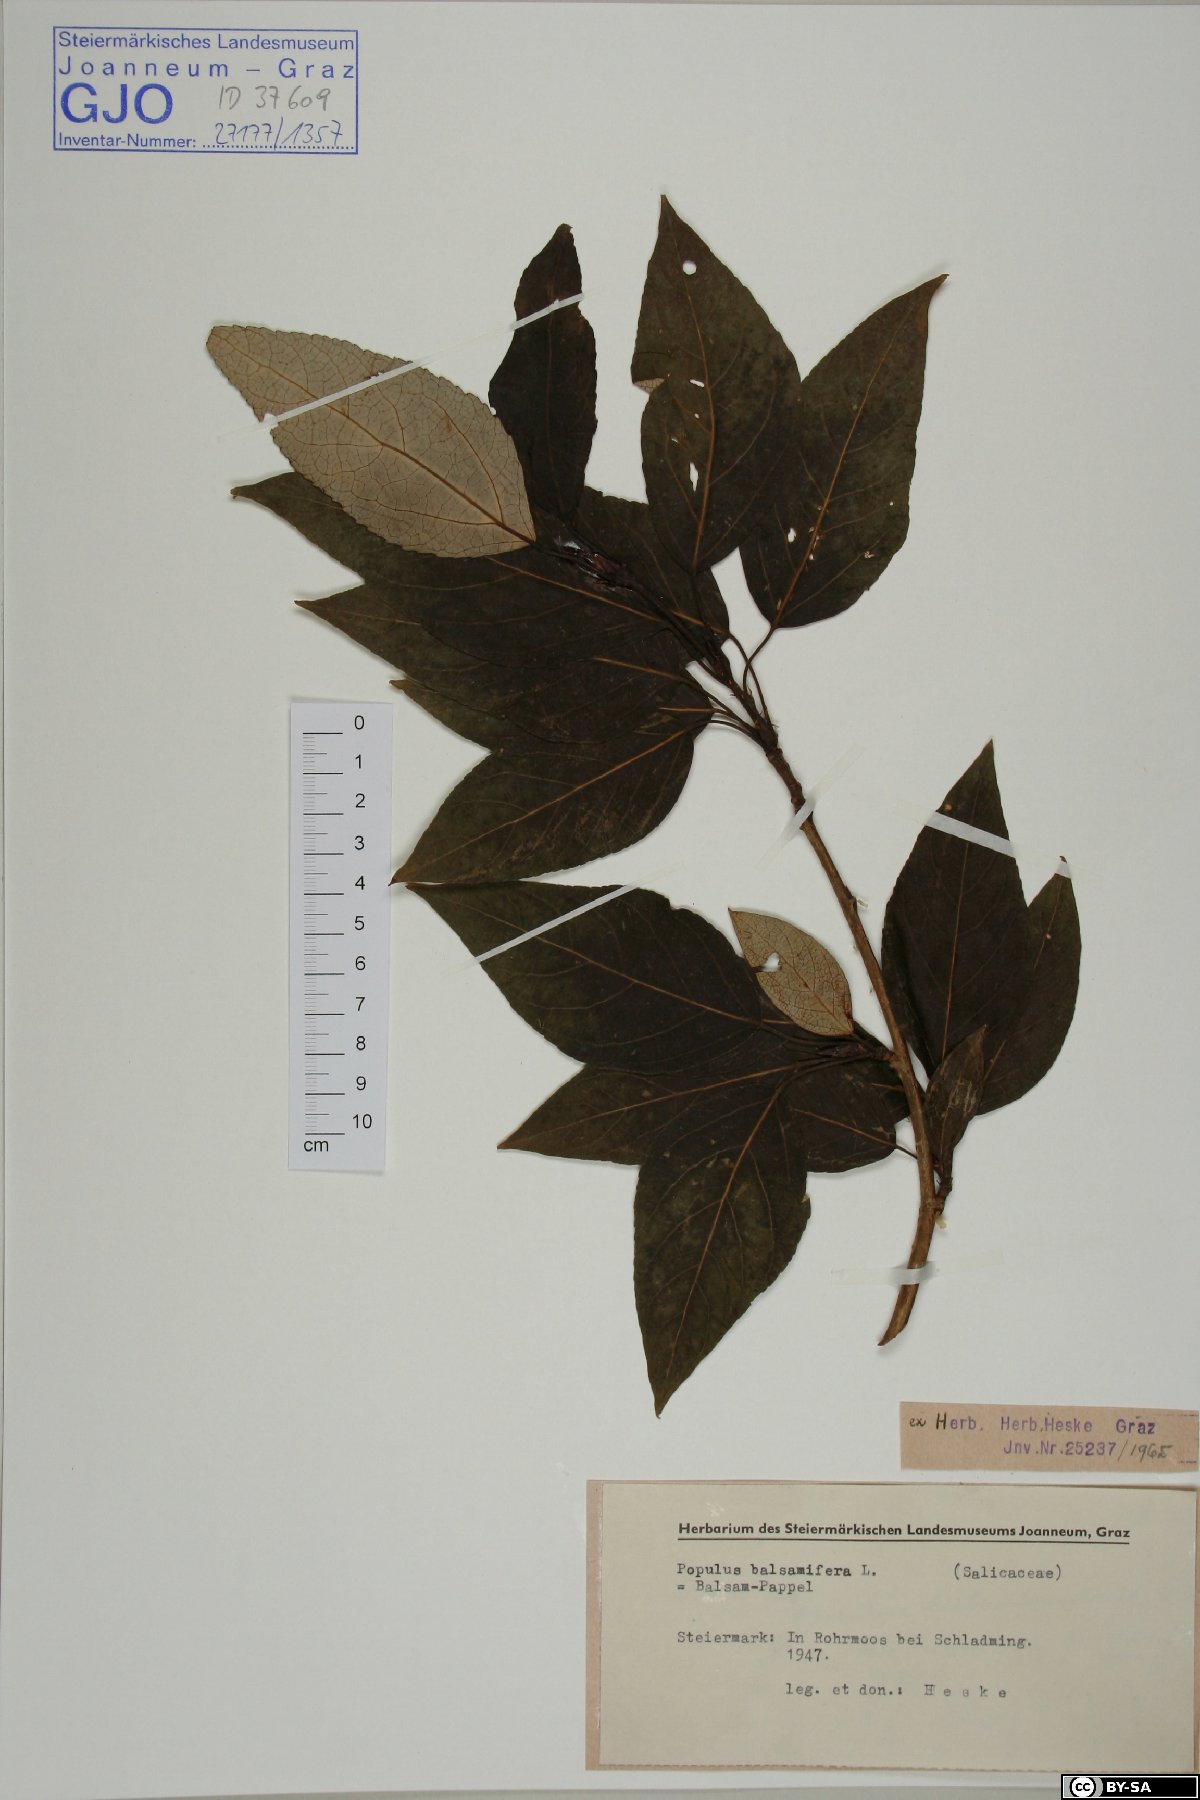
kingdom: Plantae
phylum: Tracheophyta
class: Magnoliopsida
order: Malpighiales
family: Salicaceae
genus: Populus
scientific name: Populus balsamifera
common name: Balsam poplar
